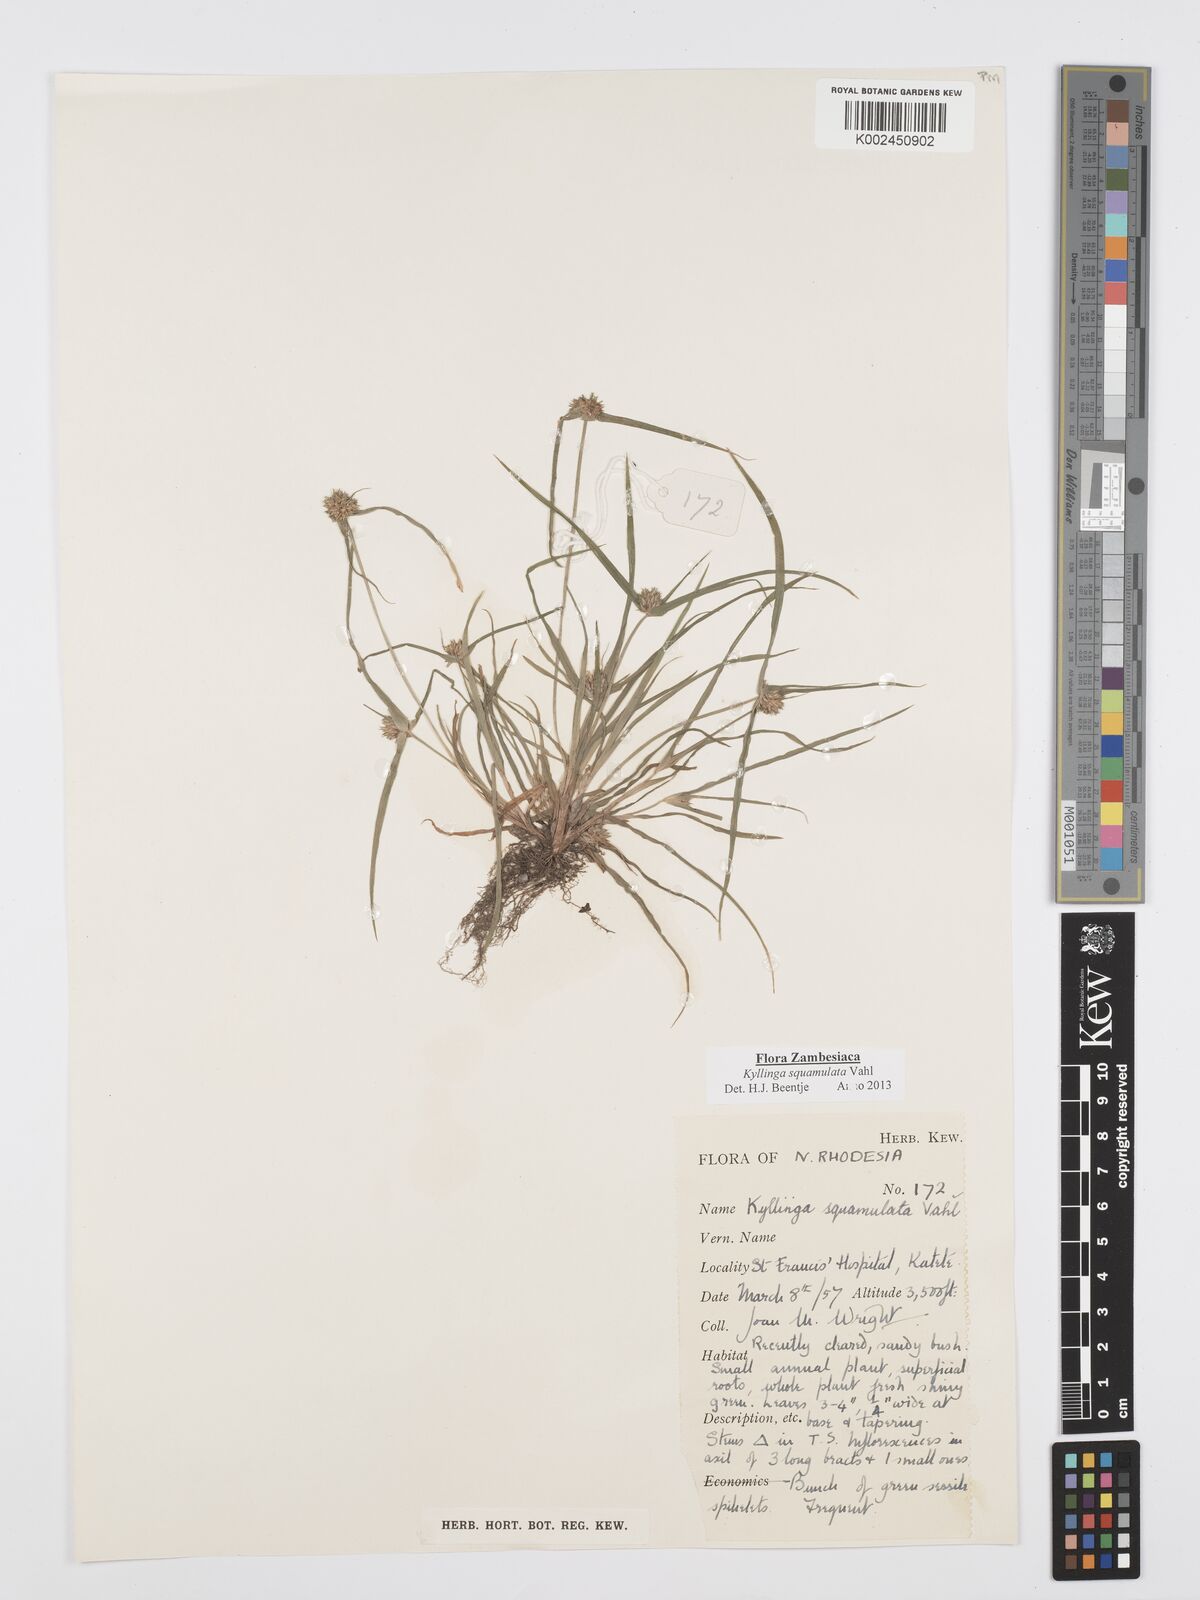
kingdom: Plantae
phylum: Tracheophyta
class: Liliopsida
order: Poales
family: Cyperaceae
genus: Cyperus
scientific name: Cyperus distans
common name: Slender cyperus
